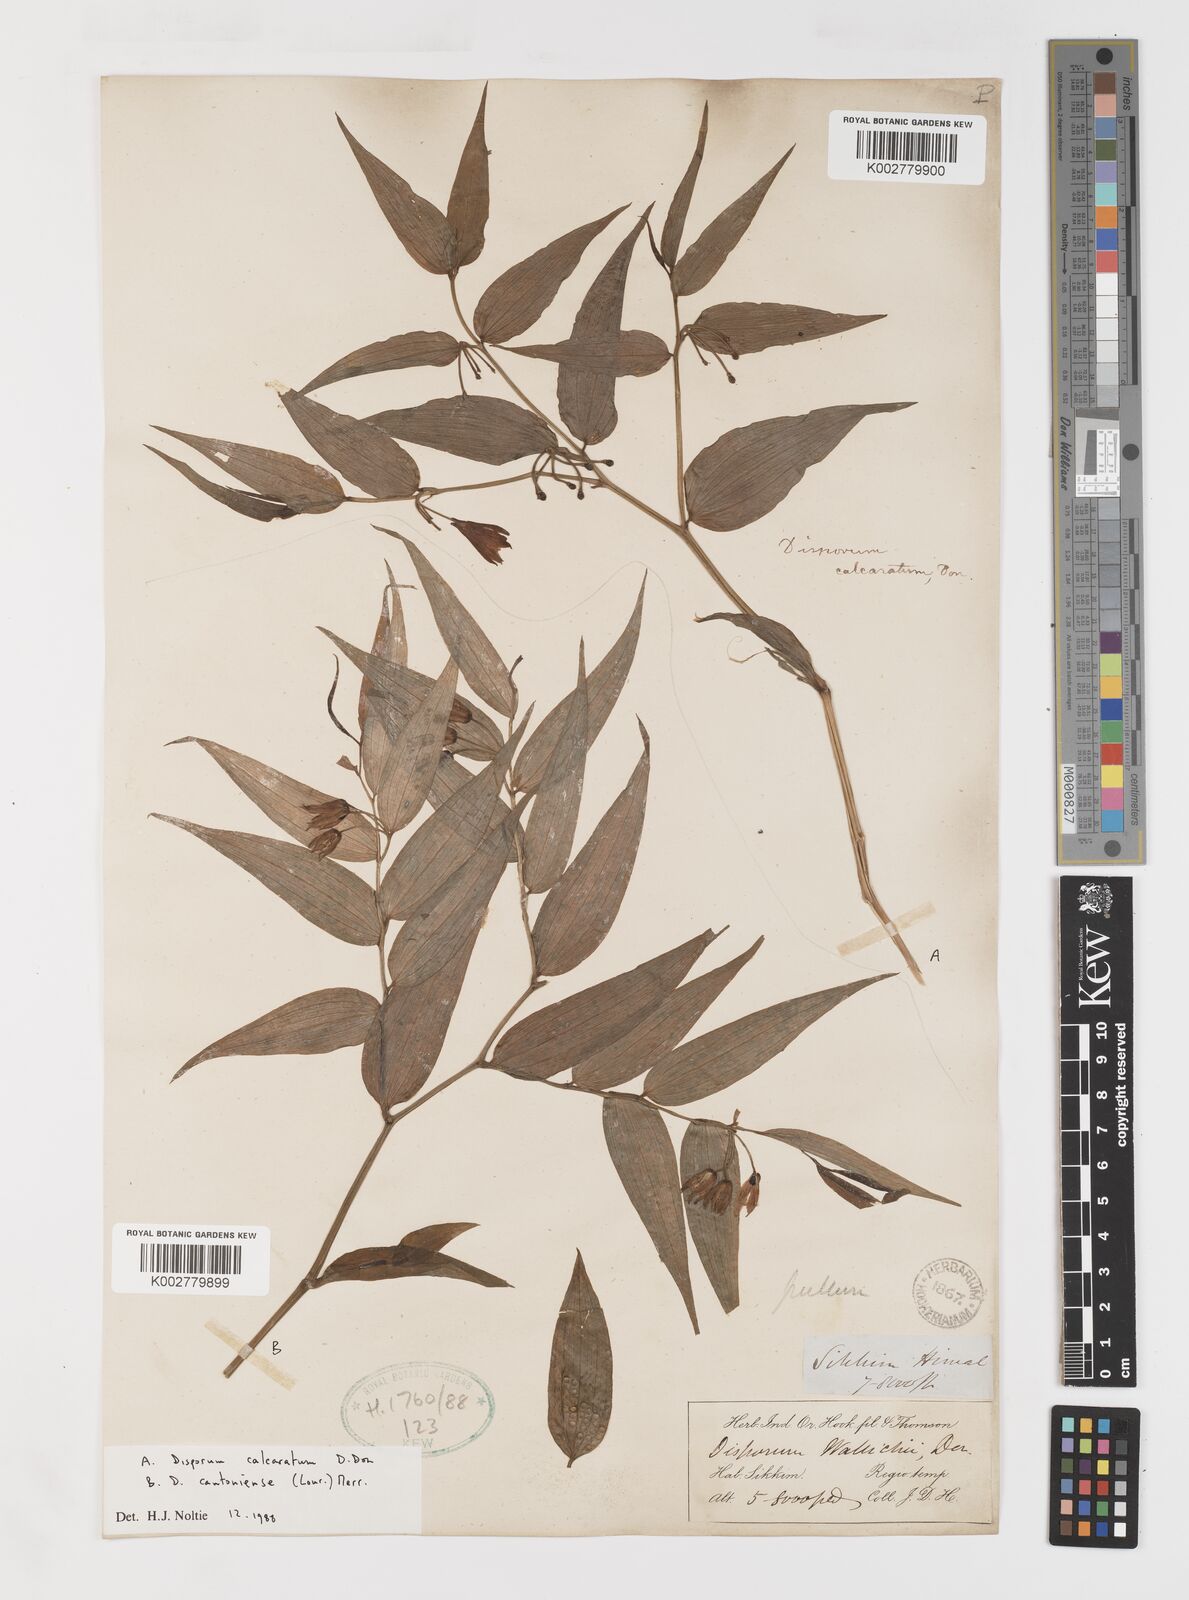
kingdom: Plantae
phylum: Tracheophyta
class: Liliopsida
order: Liliales
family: Colchicaceae
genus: Disporum
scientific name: Disporum cantoniense
